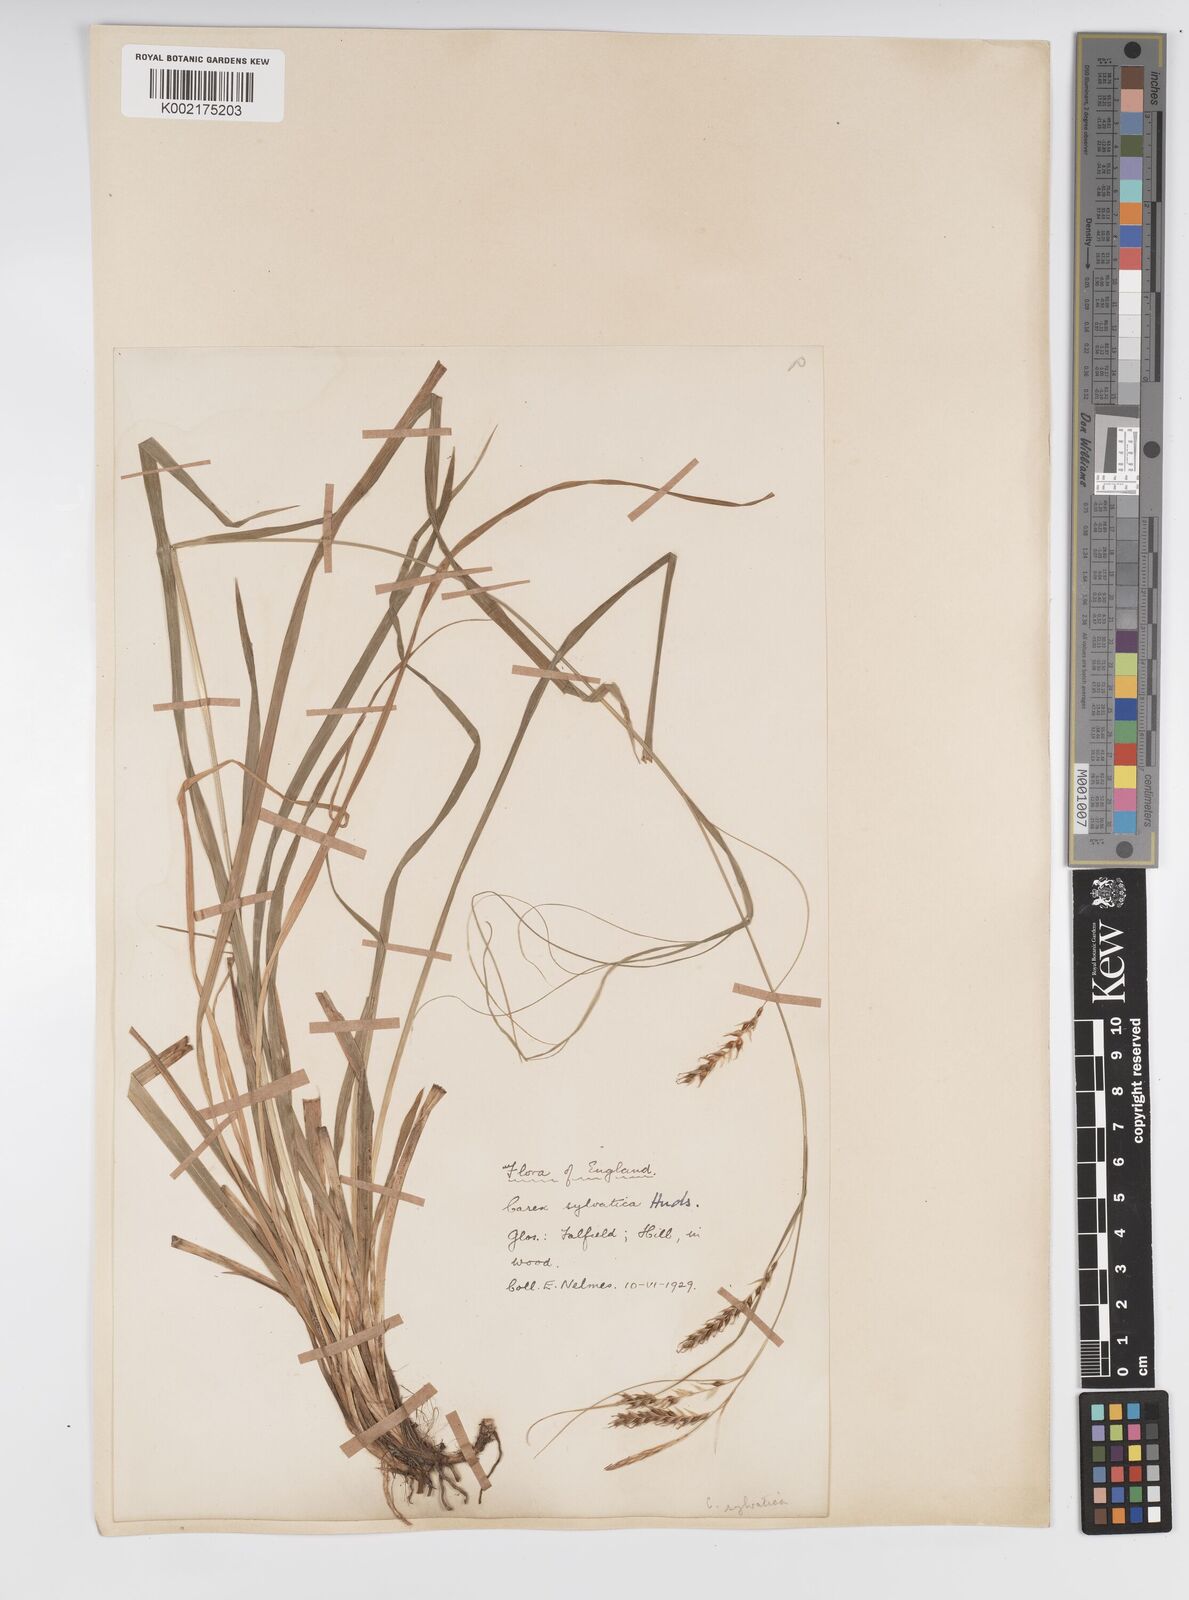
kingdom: Plantae
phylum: Tracheophyta
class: Liliopsida
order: Poales
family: Cyperaceae
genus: Carex
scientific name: Carex sylvatica
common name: Wood-sedge
